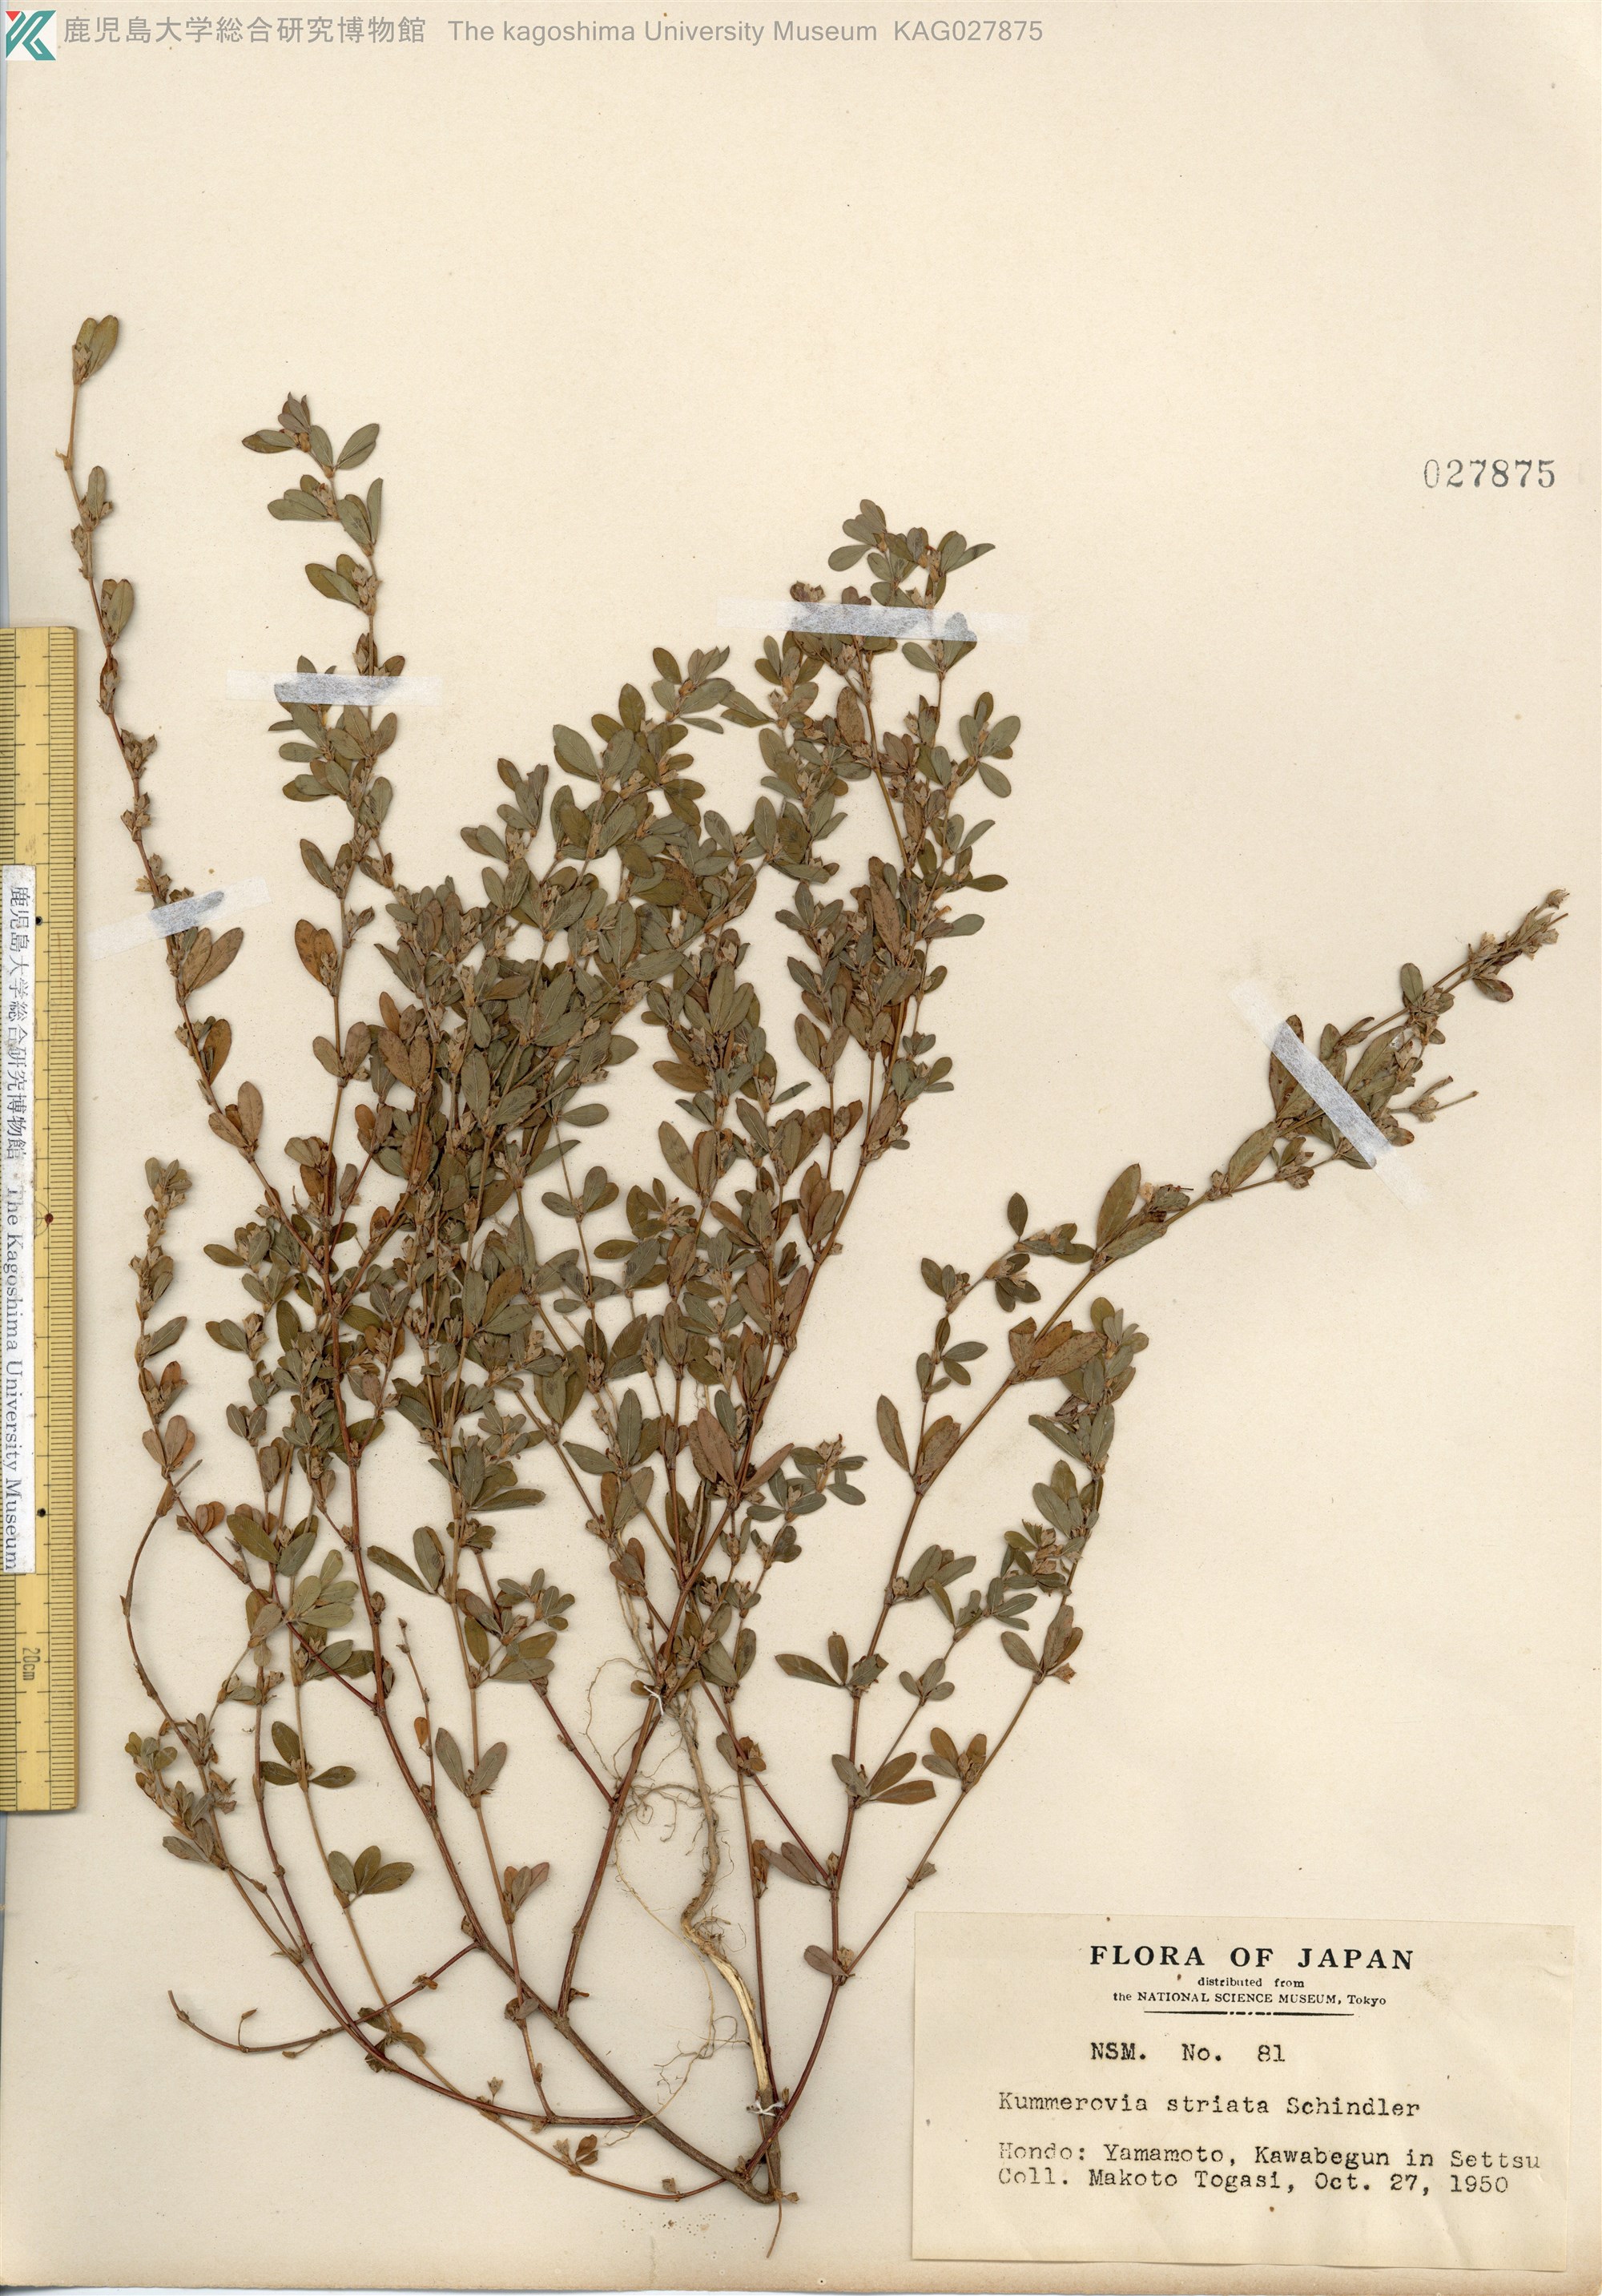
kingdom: Plantae
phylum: Tracheophyta
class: Magnoliopsida
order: Fabales
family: Fabaceae
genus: Kummerowia
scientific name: Kummerowia striata
